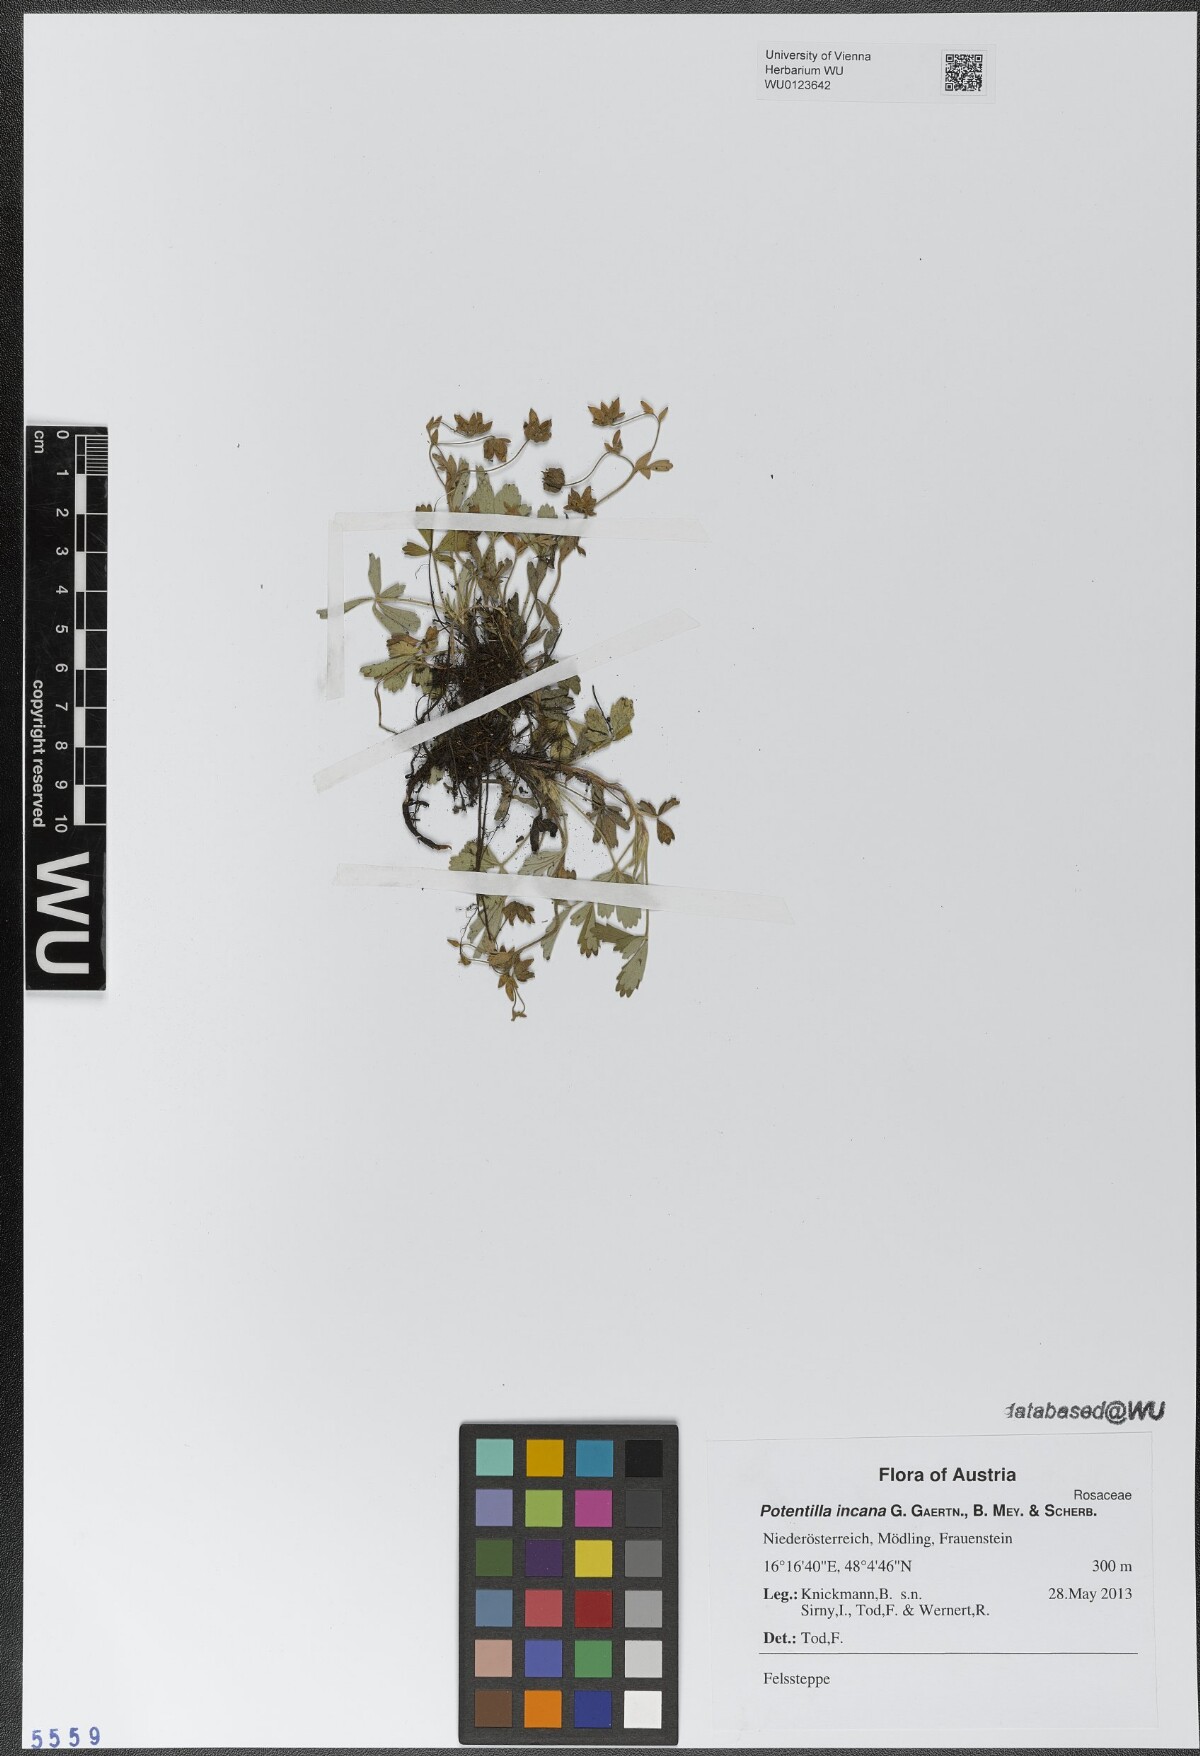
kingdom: Plantae
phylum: Tracheophyta
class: Magnoliopsida
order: Rosales
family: Rosaceae
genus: Potentilla
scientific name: Potentilla cinerea
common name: Ashy cinquefoil
